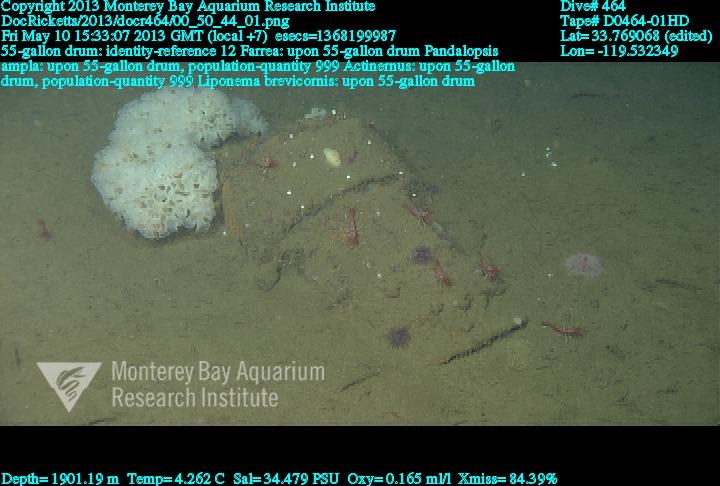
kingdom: Animalia
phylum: Porifera
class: Hexactinellida
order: Sceptrulophora
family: Farreidae
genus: Farrea
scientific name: Farrea
